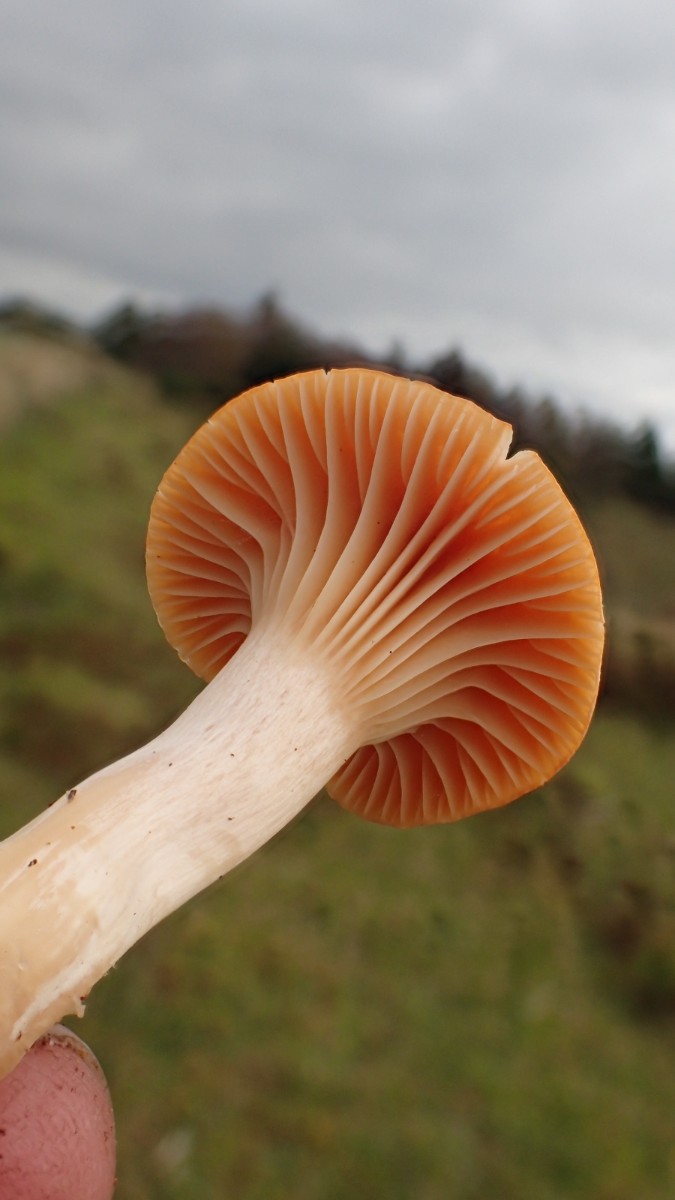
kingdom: Fungi
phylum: Basidiomycota
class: Agaricomycetes
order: Agaricales
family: Hygrophoraceae
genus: Cuphophyllus
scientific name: Cuphophyllus pratensis
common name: eng-vokshat
